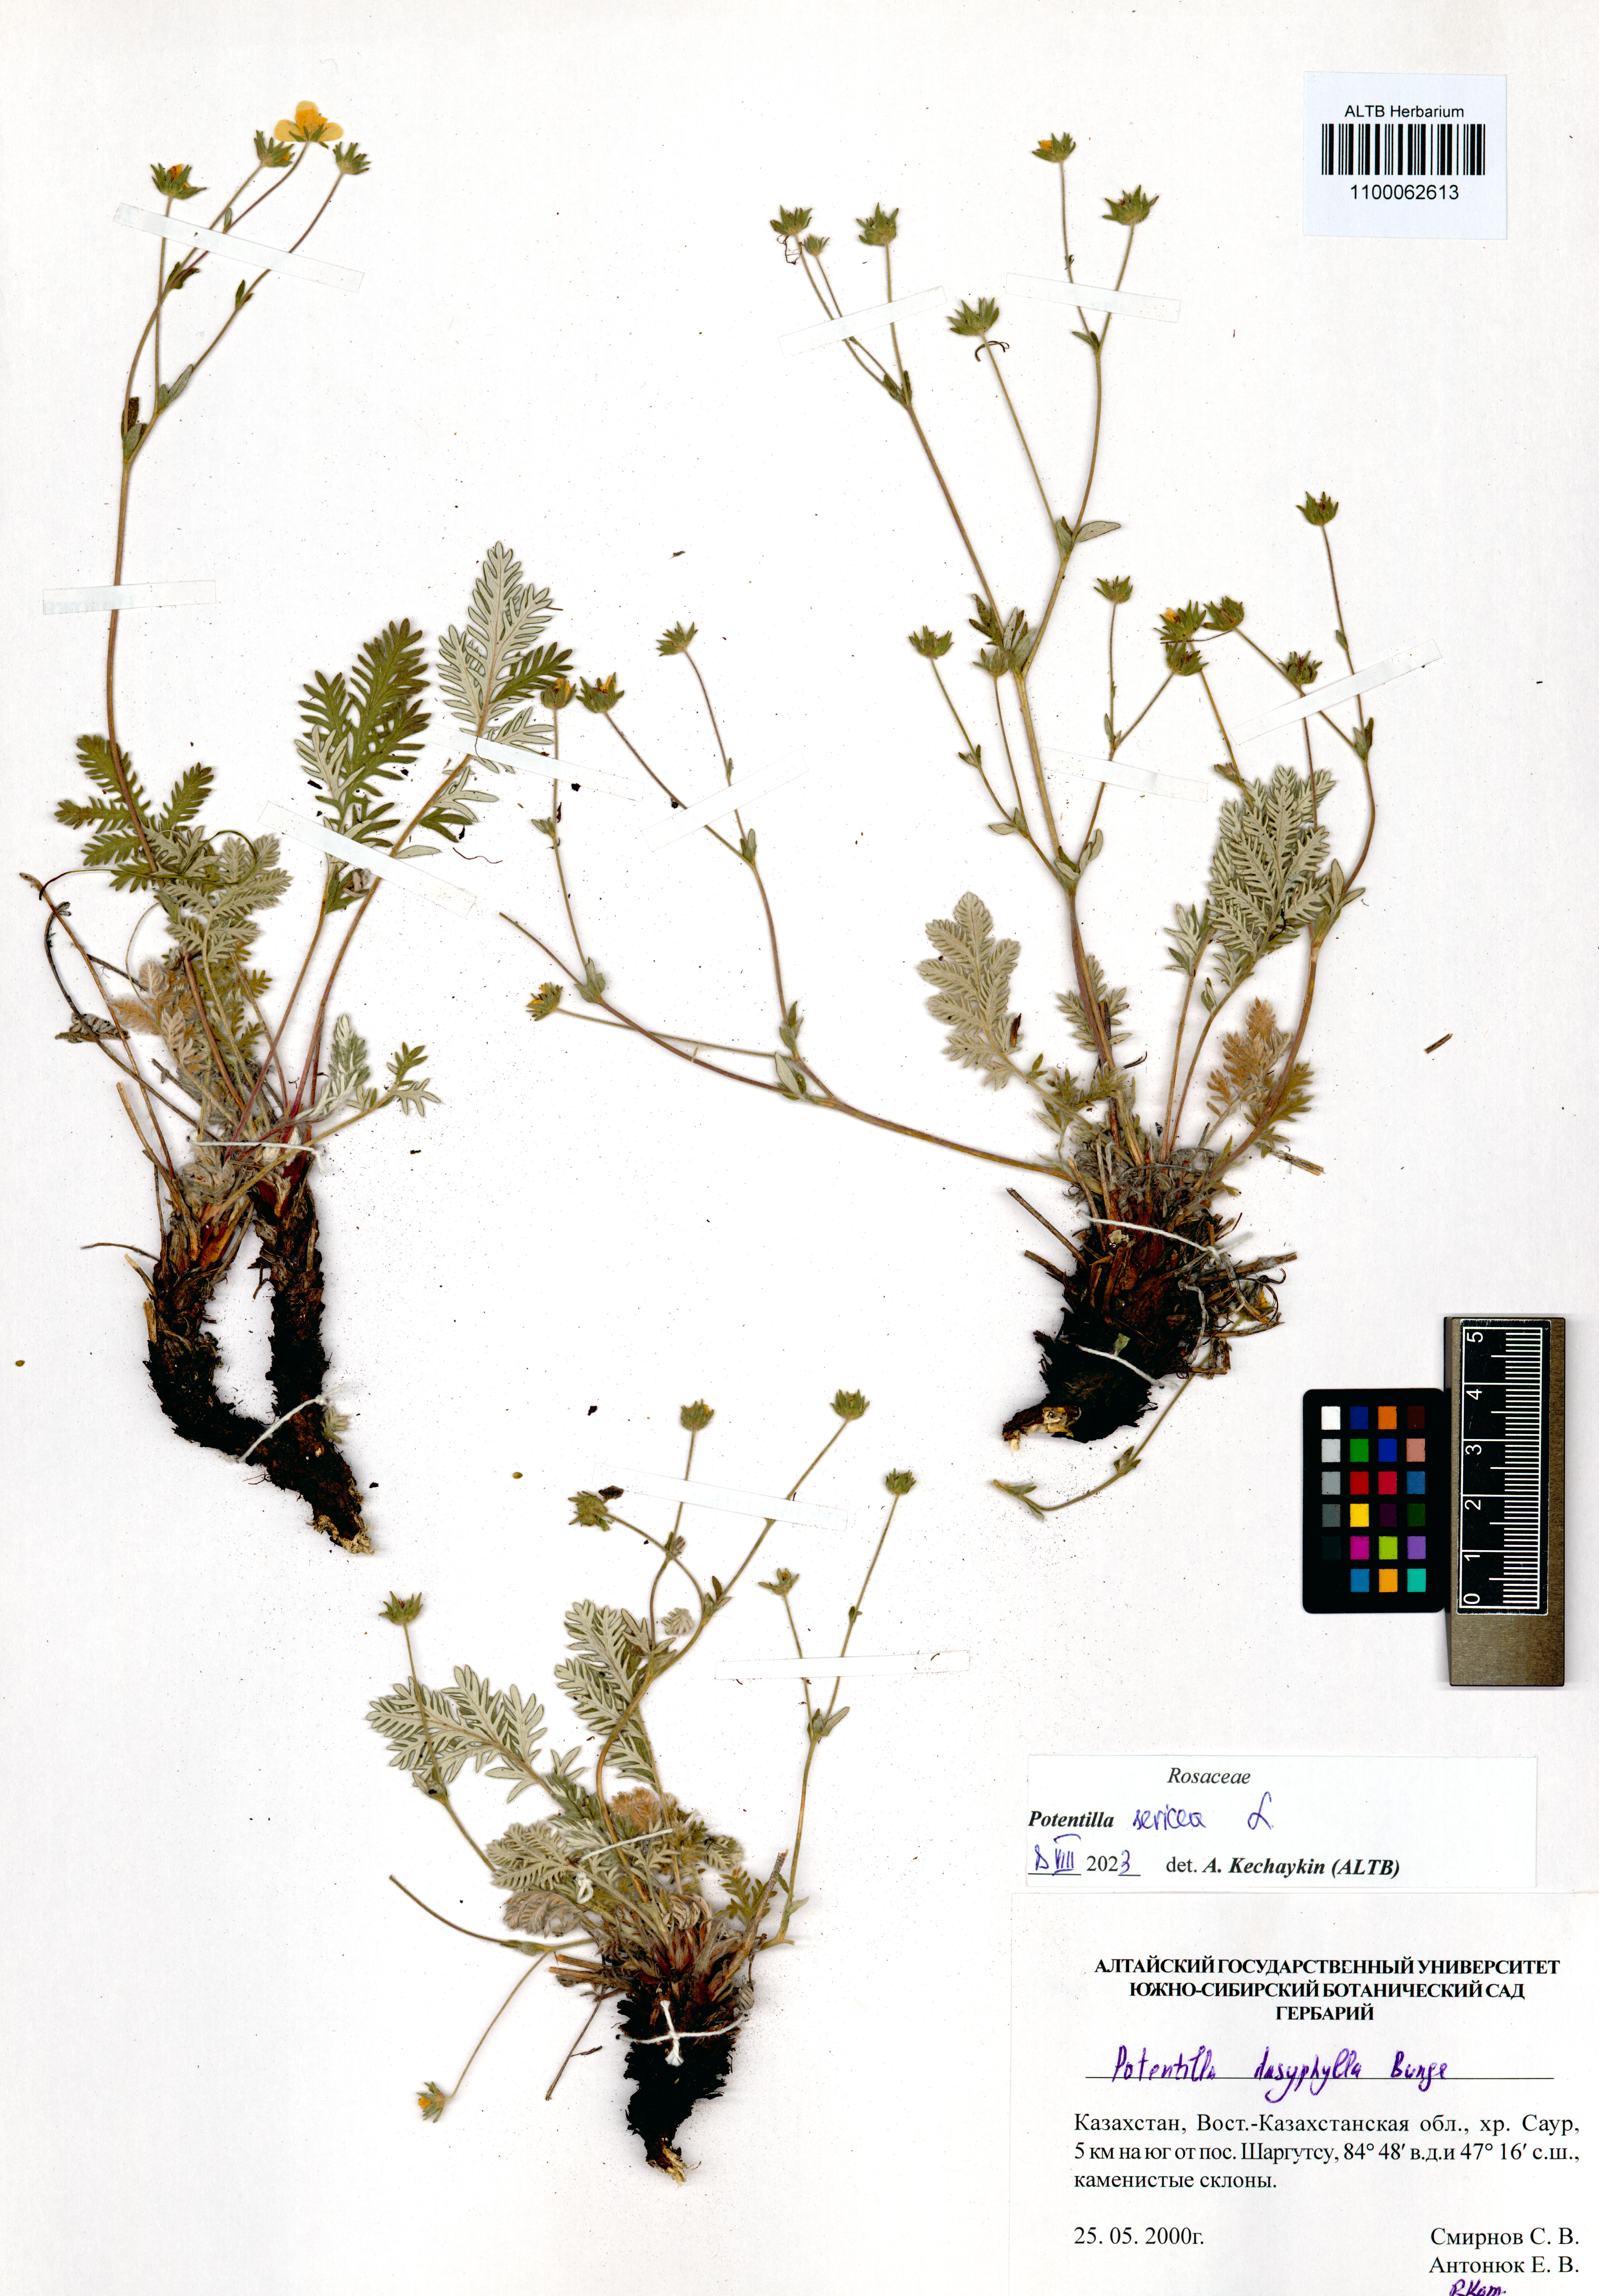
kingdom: Plantae
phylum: Tracheophyta
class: Magnoliopsida
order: Rosales
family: Rosaceae
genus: Potentilla
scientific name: Potentilla sericea
